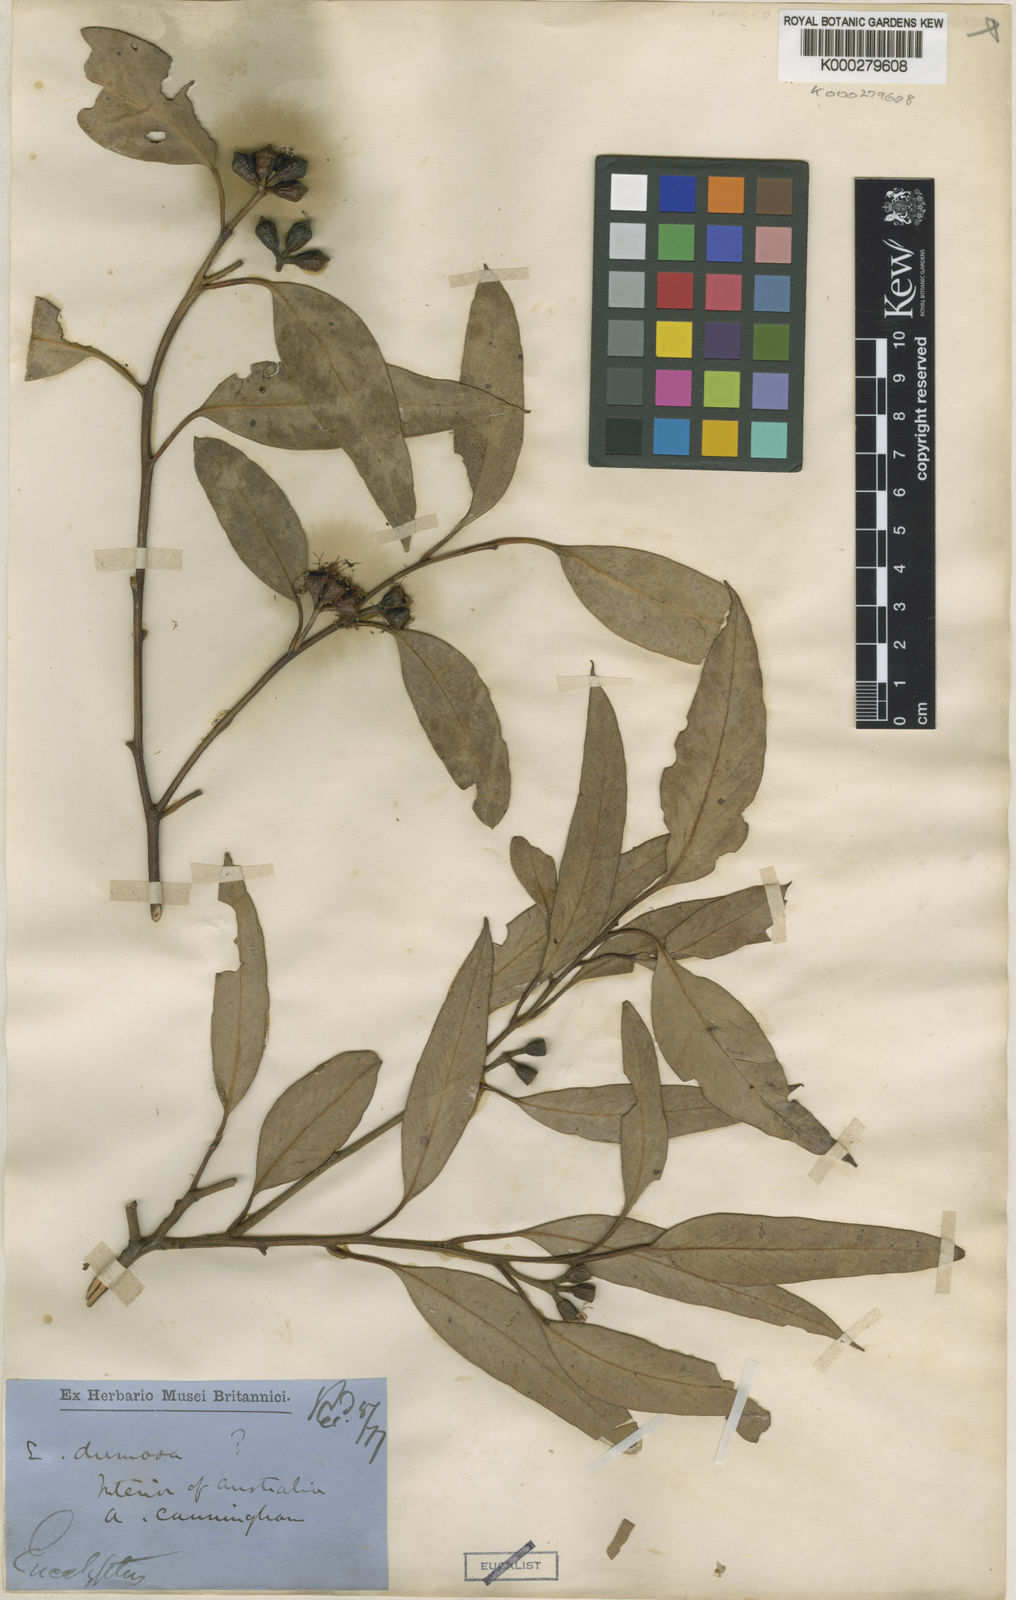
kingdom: Plantae
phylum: Tracheophyta
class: Magnoliopsida
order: Myrtales
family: Myrtaceae
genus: Eucalyptus
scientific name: Eucalyptus dumosa
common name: Dumosa mallee
